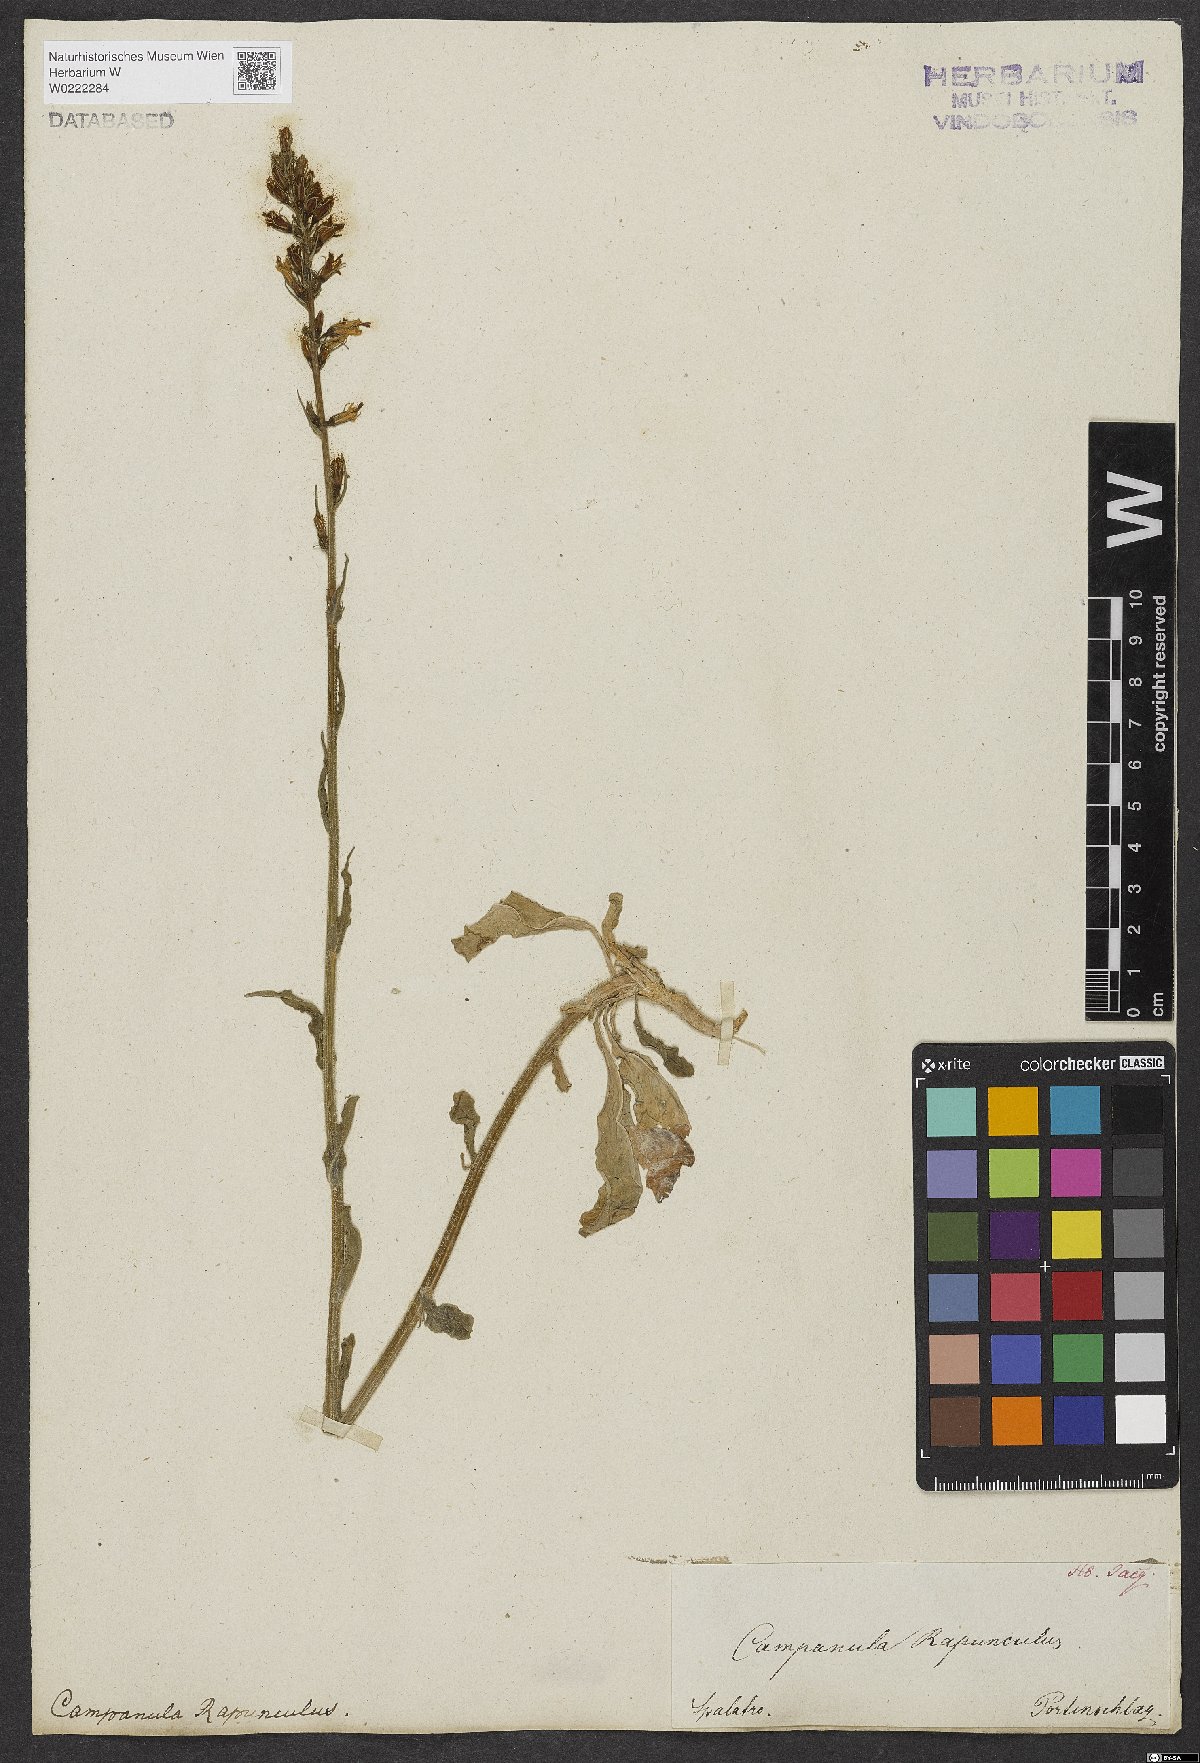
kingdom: Plantae
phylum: Tracheophyta
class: Magnoliopsida
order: Asterales
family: Campanulaceae
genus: Campanula
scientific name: Campanula rapunculus
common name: Rampion bellflower
